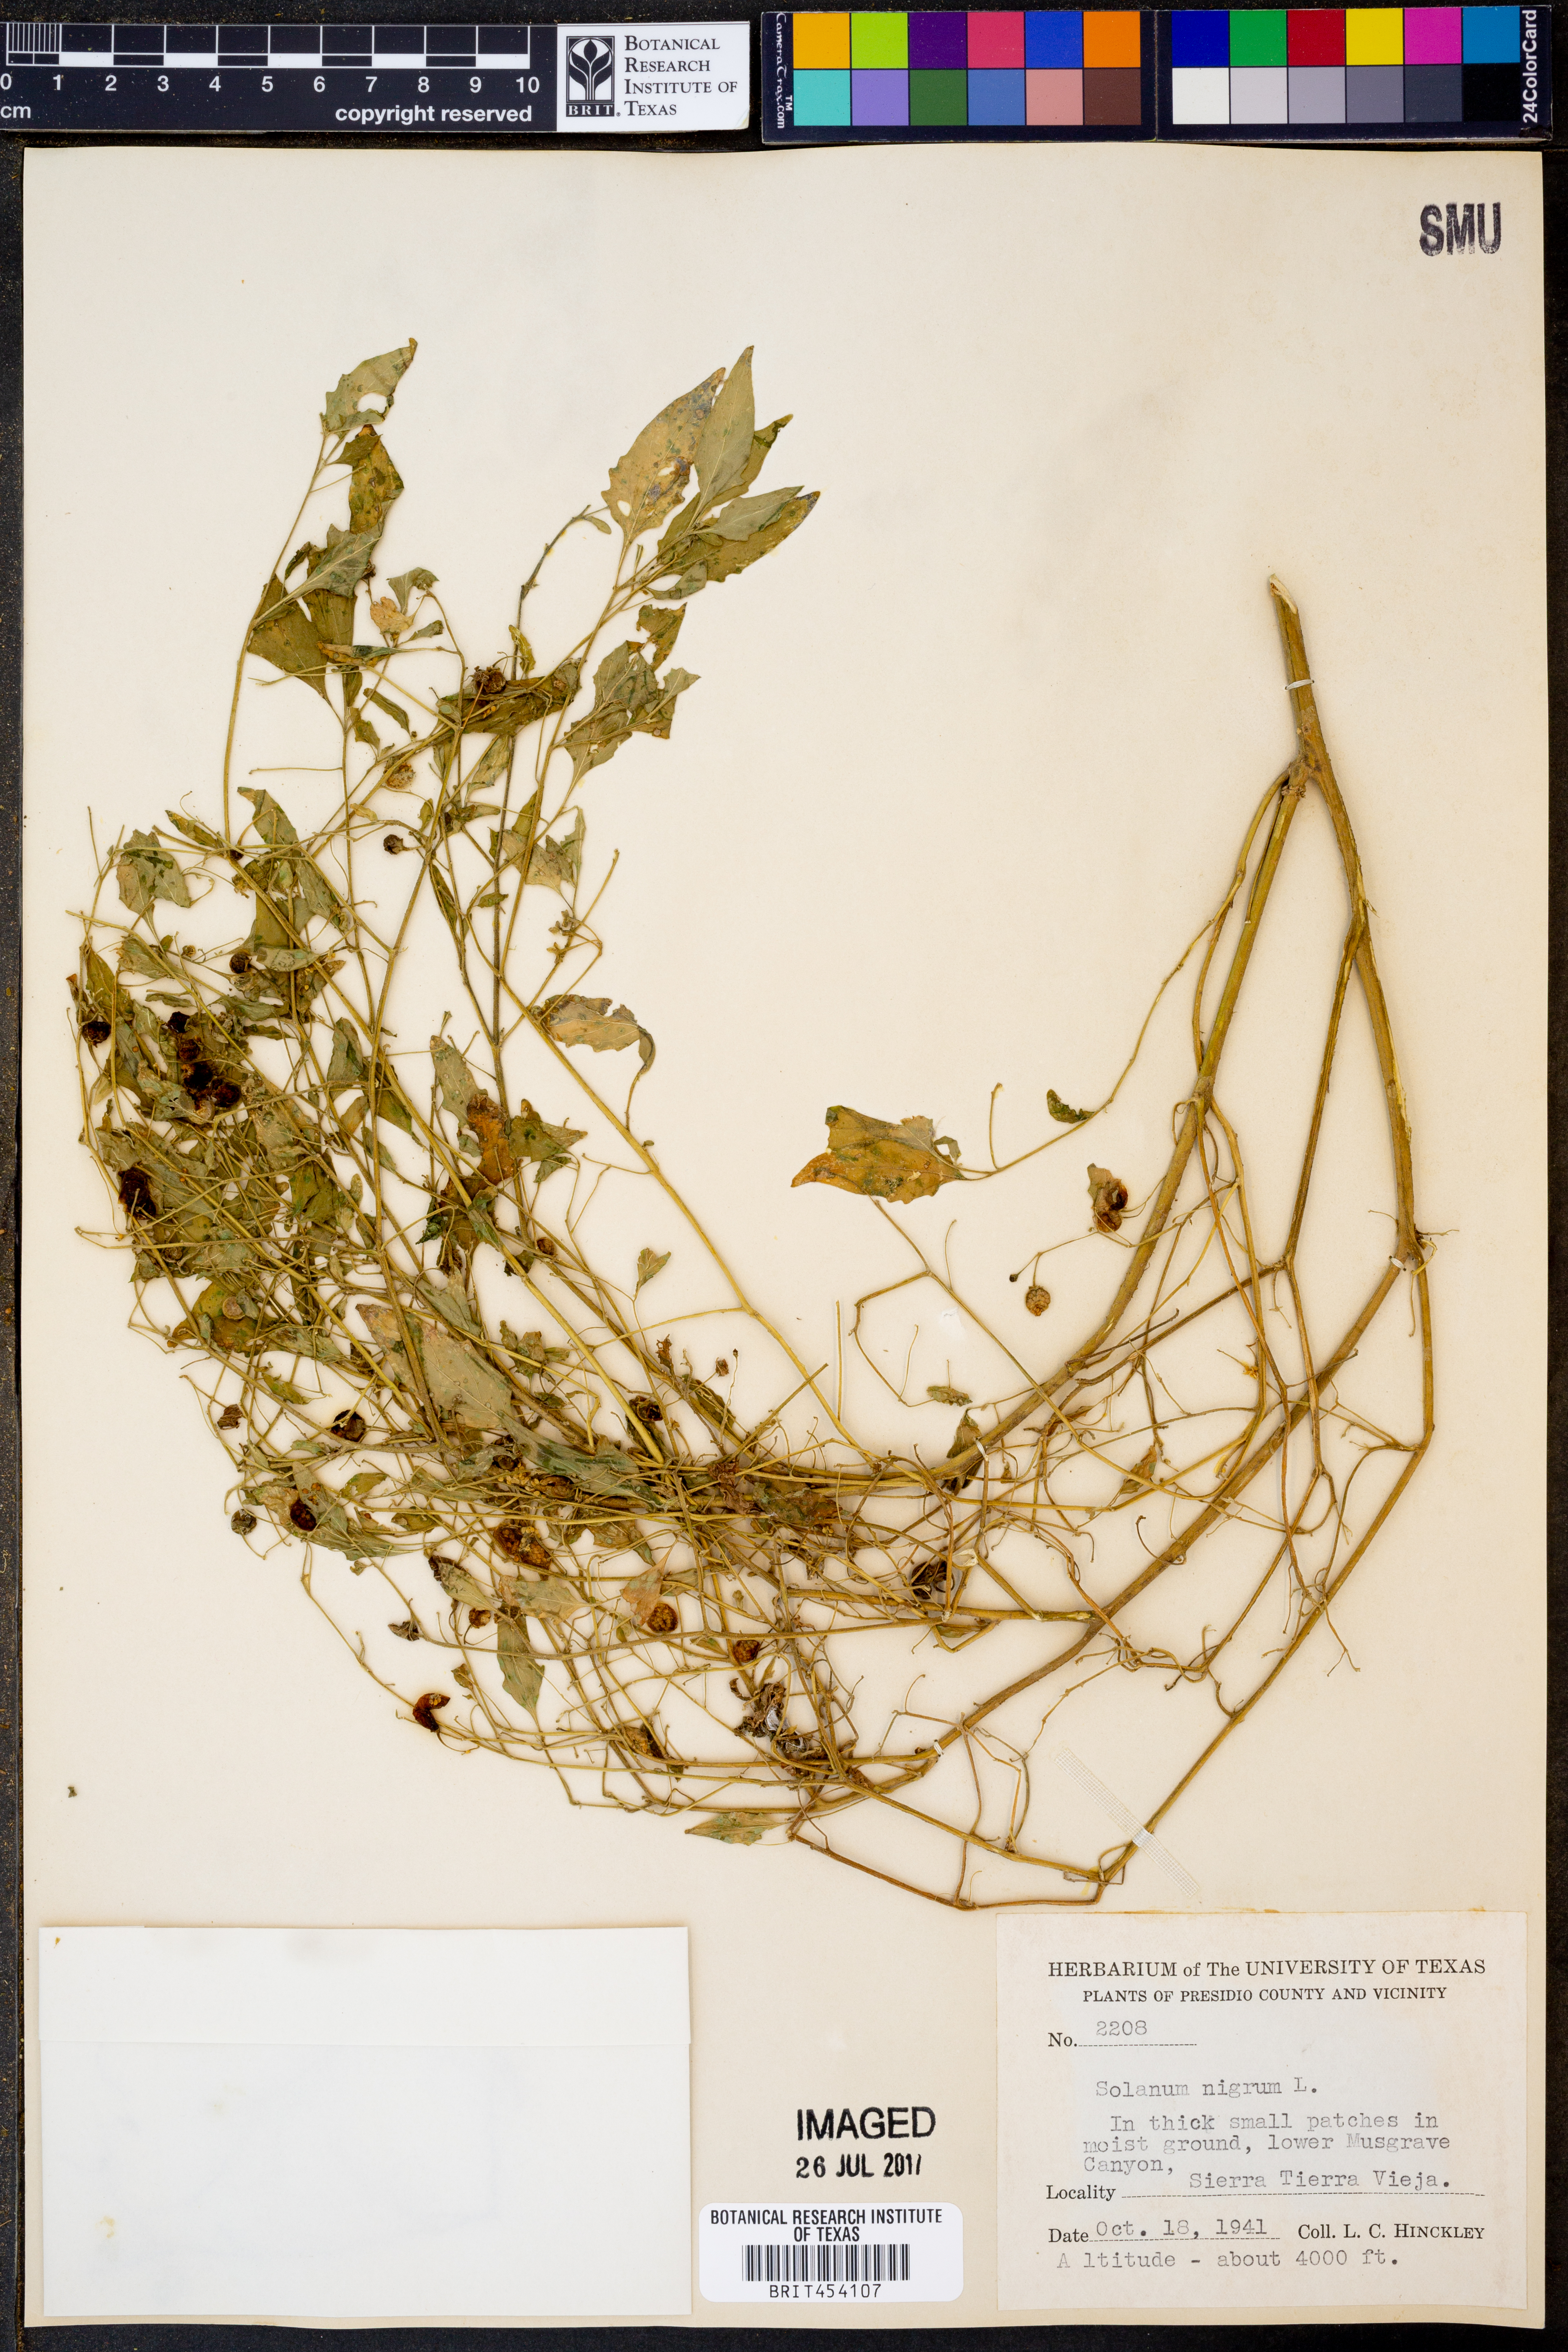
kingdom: Plantae
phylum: Tracheophyta
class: Magnoliopsida
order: Solanales
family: Solanaceae
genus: Solanum
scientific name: Solanum nigrum
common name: Black nightshade
